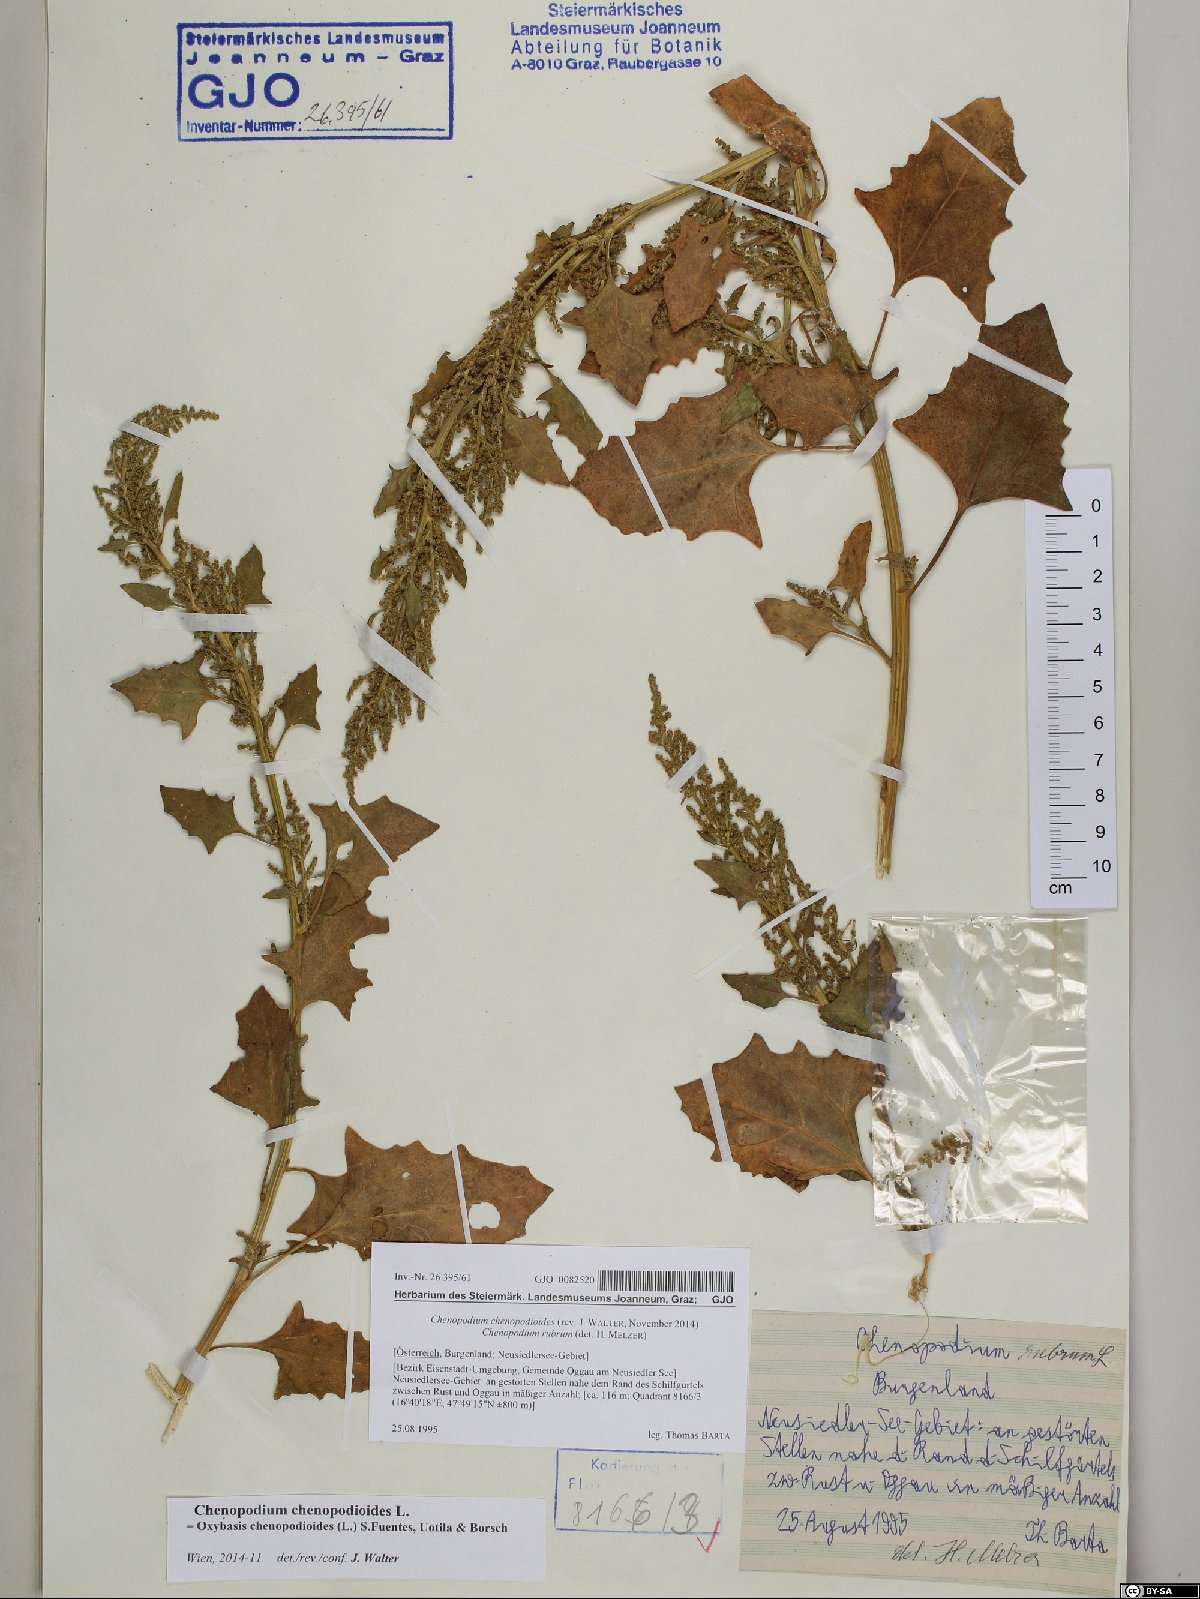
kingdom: Plantae
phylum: Tracheophyta
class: Magnoliopsida
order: Caryophyllales
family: Amaranthaceae
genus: Oxybasis
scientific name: Oxybasis chenopodioides
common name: Saltmarsh goosefoot
